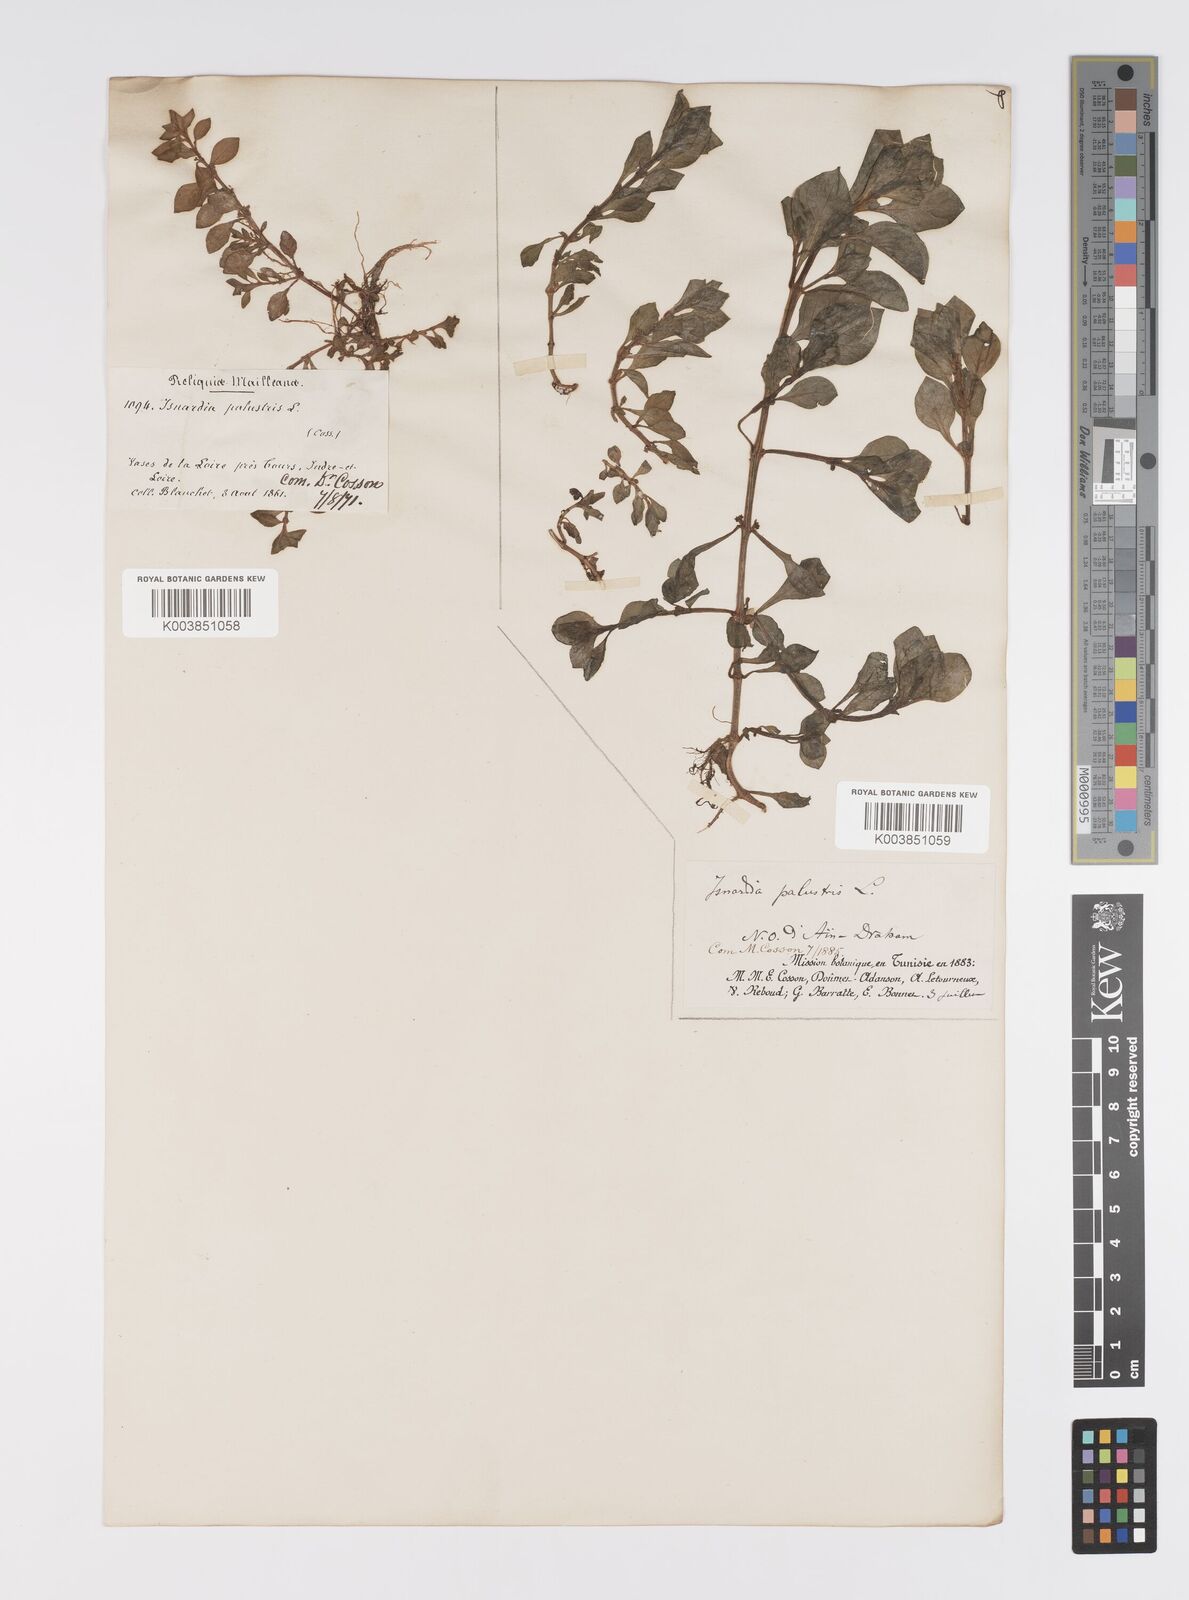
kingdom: Plantae
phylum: Tracheophyta
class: Magnoliopsida
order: Myrtales
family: Onagraceae
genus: Ludwigia
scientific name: Ludwigia palustris
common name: Hampshire-purslane
